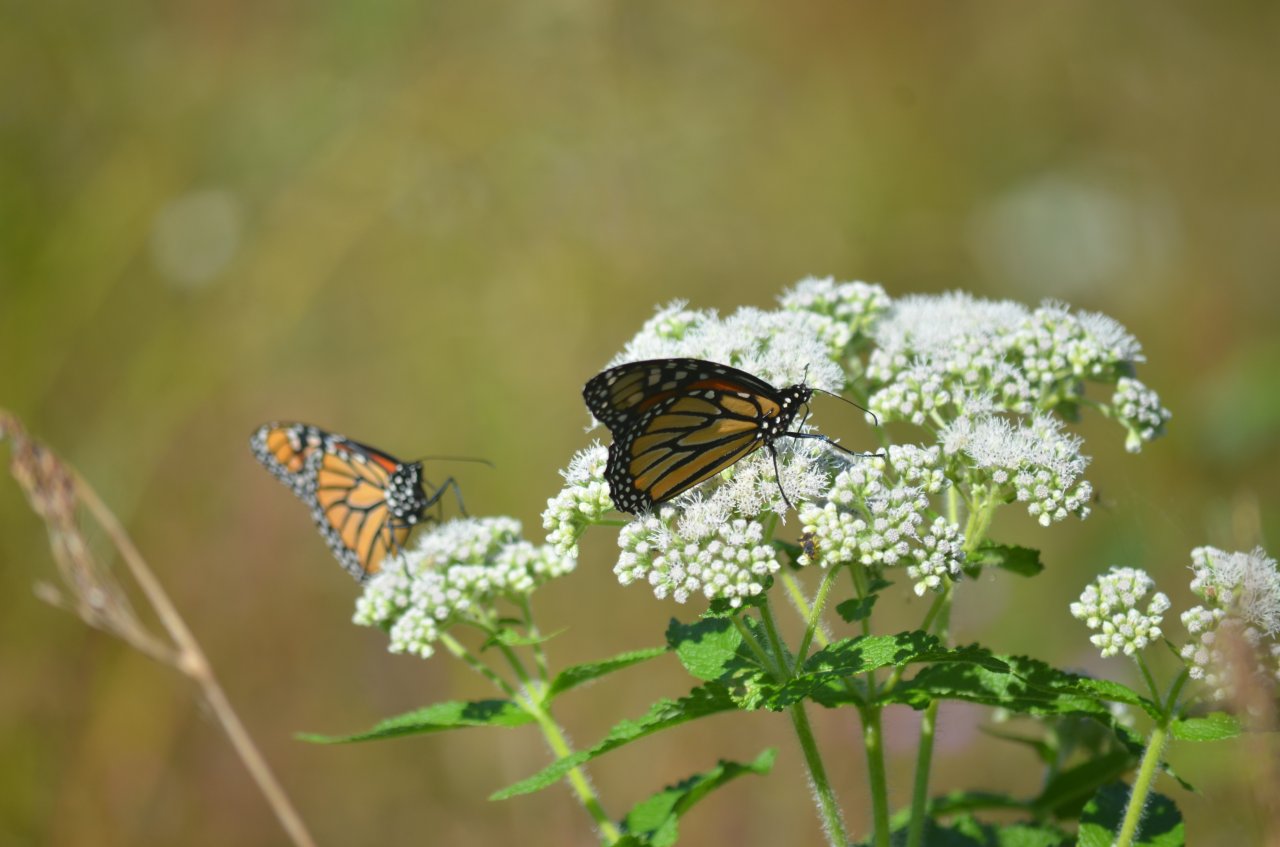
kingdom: Animalia
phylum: Arthropoda
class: Insecta
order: Lepidoptera
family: Nymphalidae
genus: Danaus
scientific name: Danaus plexippus
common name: Monarch
